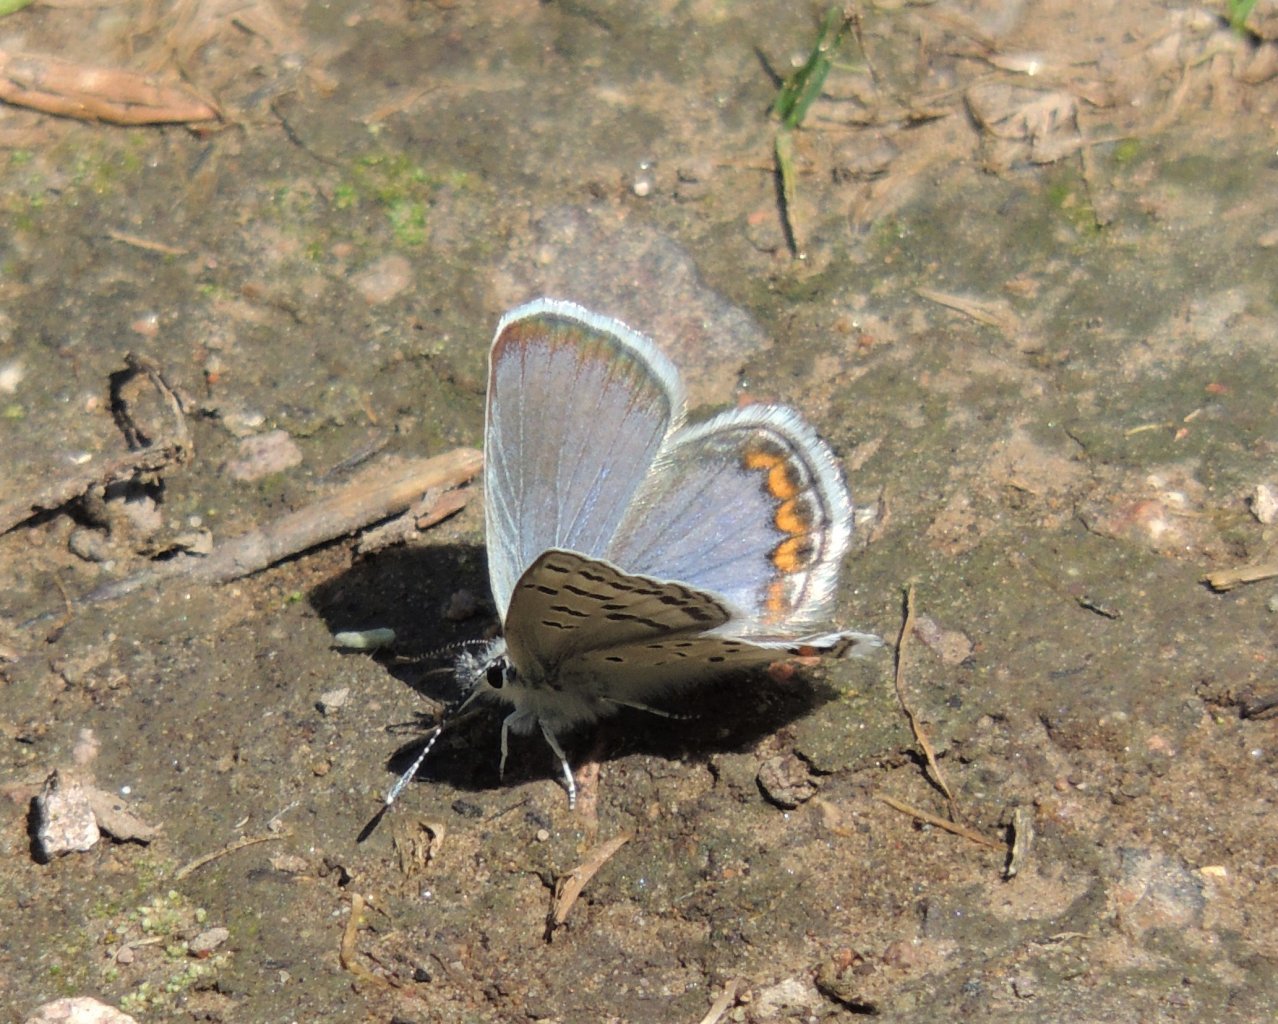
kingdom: Animalia
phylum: Arthropoda
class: Insecta
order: Lepidoptera
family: Lycaenidae
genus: Plebejus
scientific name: Plebejus lupini
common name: Lupine Blue
